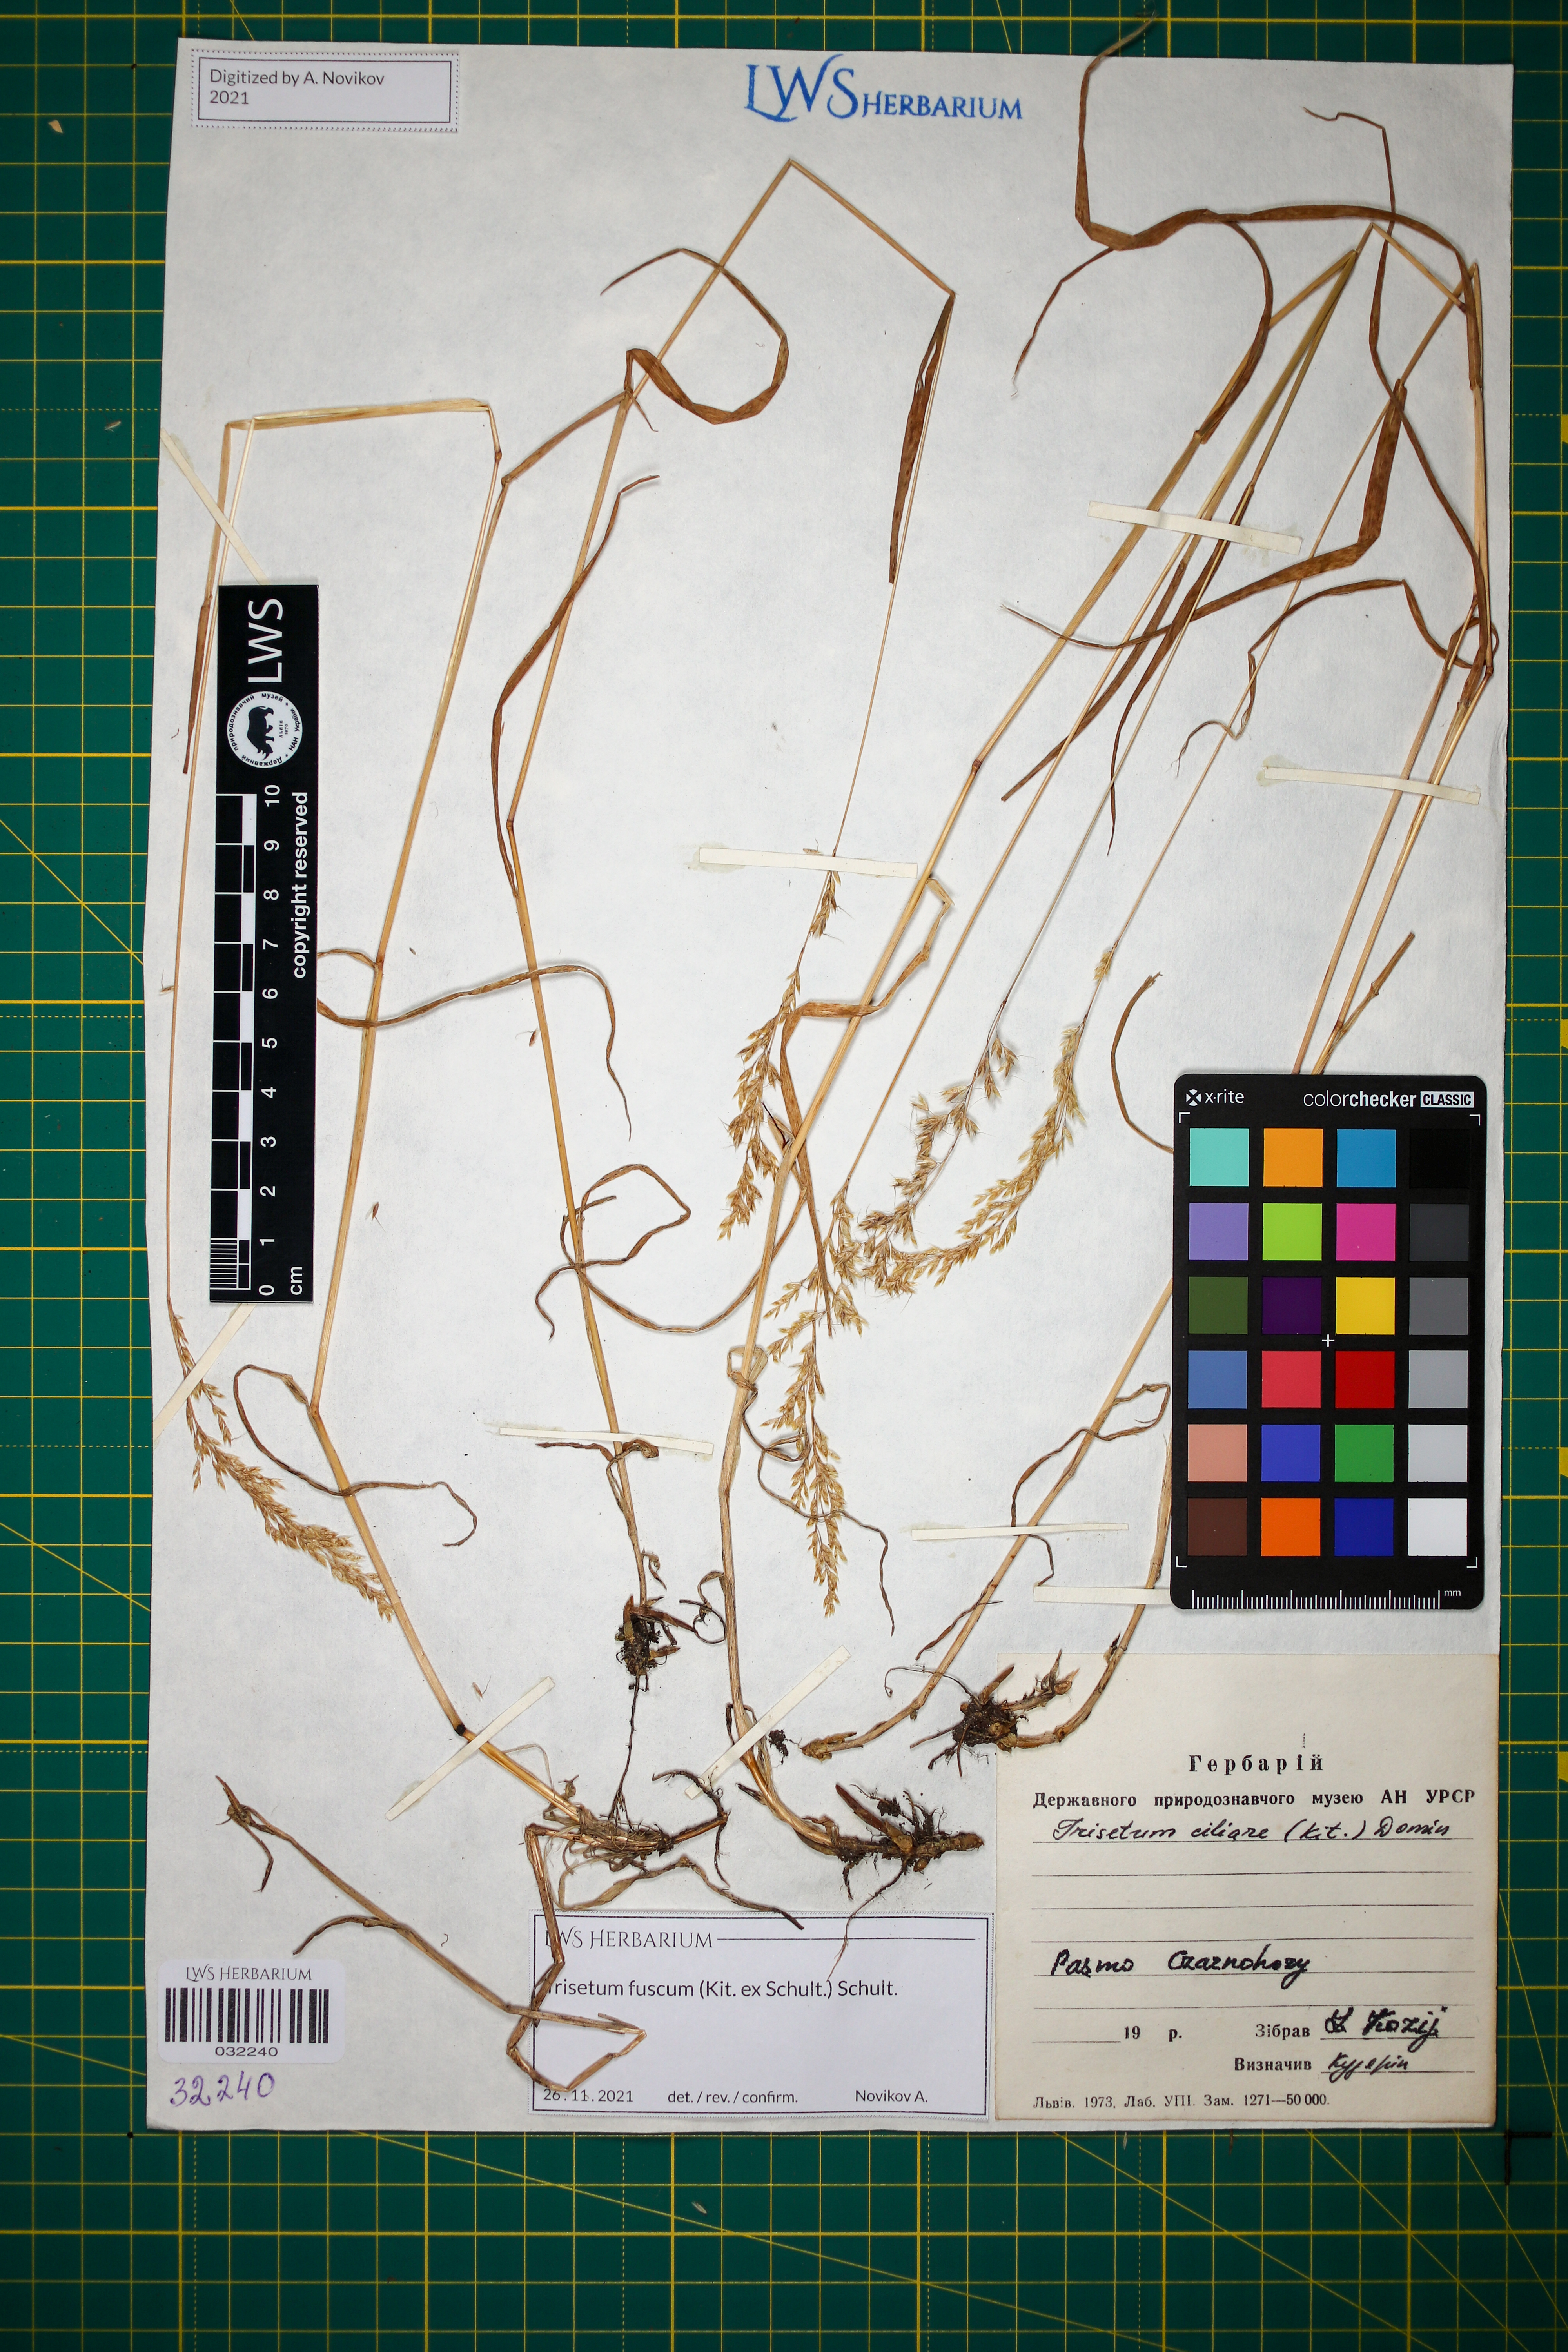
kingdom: Plantae
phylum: Tracheophyta
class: Liliopsida
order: Poales
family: Poaceae
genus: Trisetum
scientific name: Trisetum fuscum
